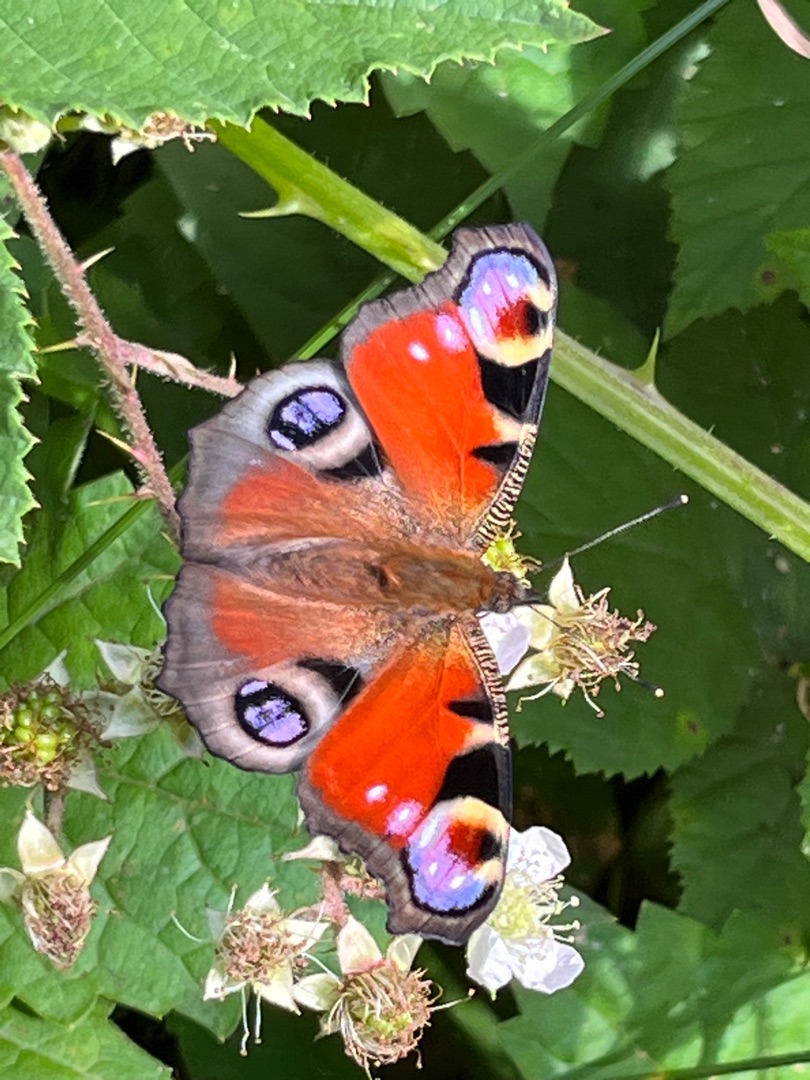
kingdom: Animalia
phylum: Arthropoda
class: Insecta
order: Lepidoptera
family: Nymphalidae
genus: Aglais
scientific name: Aglais io
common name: Dagpåfugleøje
